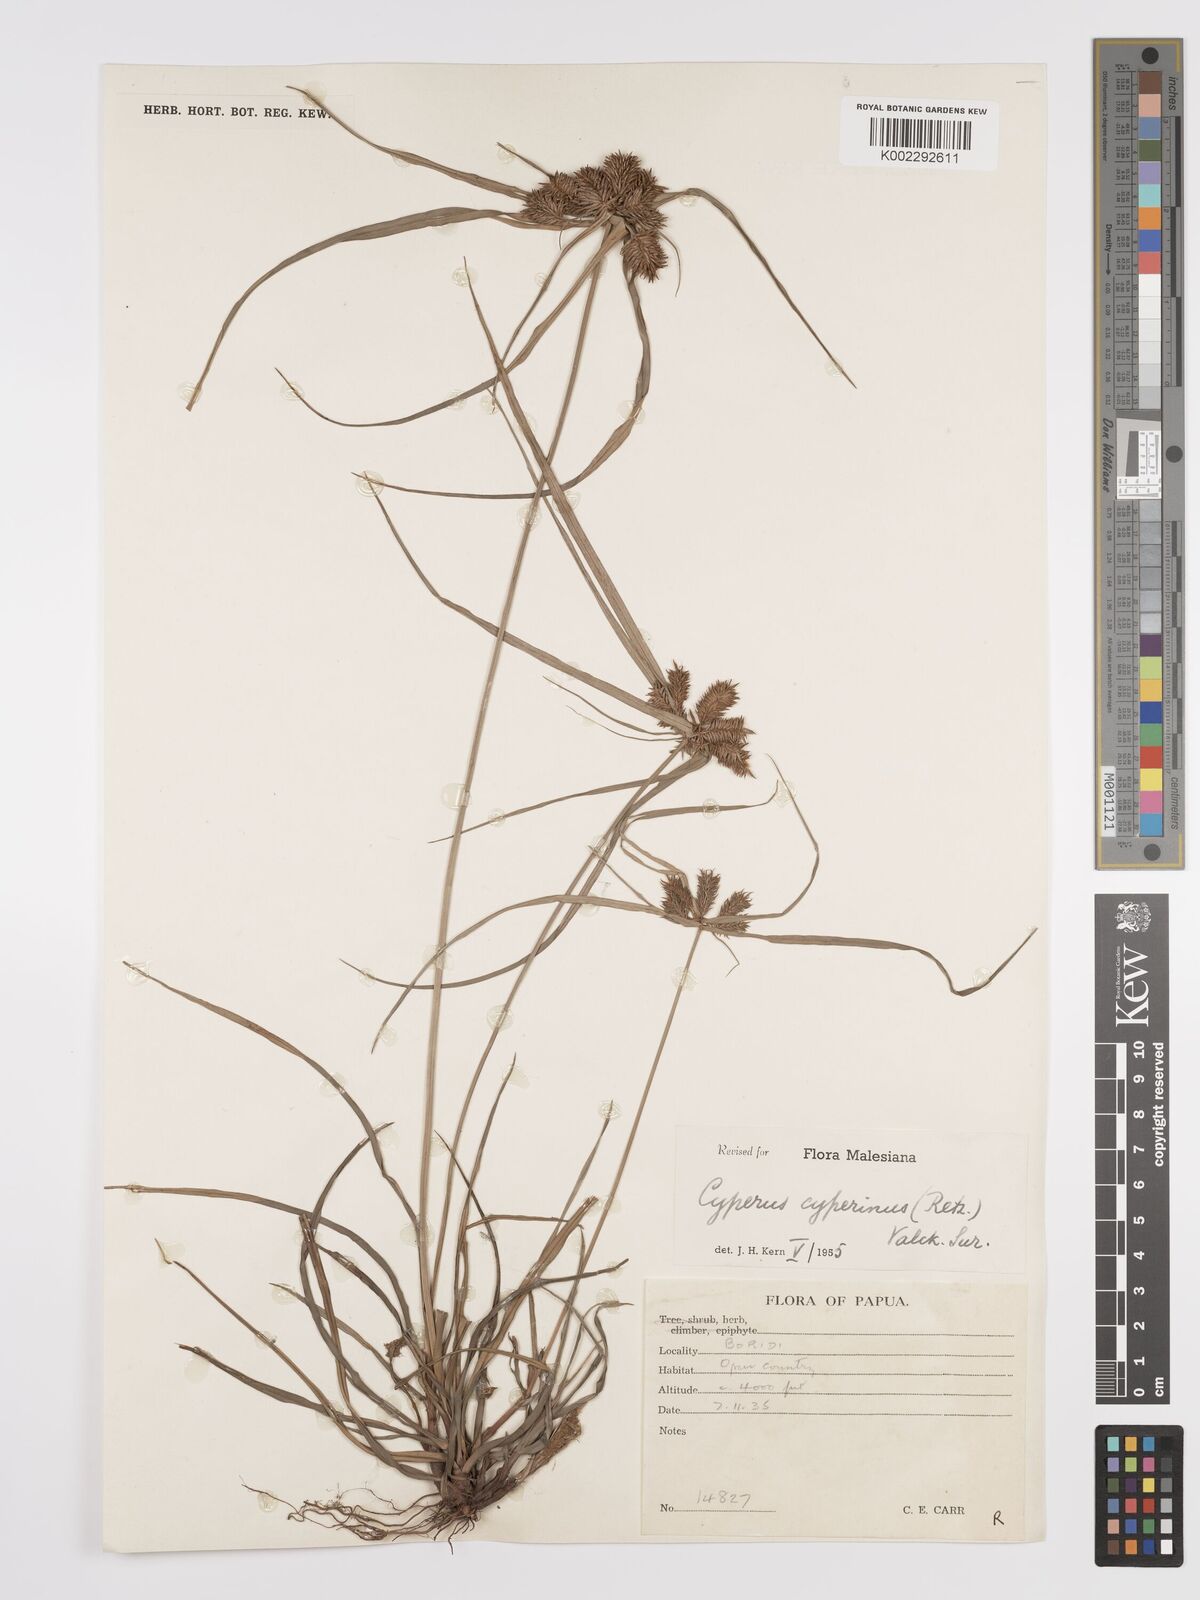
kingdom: Plantae
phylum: Tracheophyta
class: Liliopsida
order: Poales
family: Cyperaceae
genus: Cyperus
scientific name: Cyperus cyperinus
